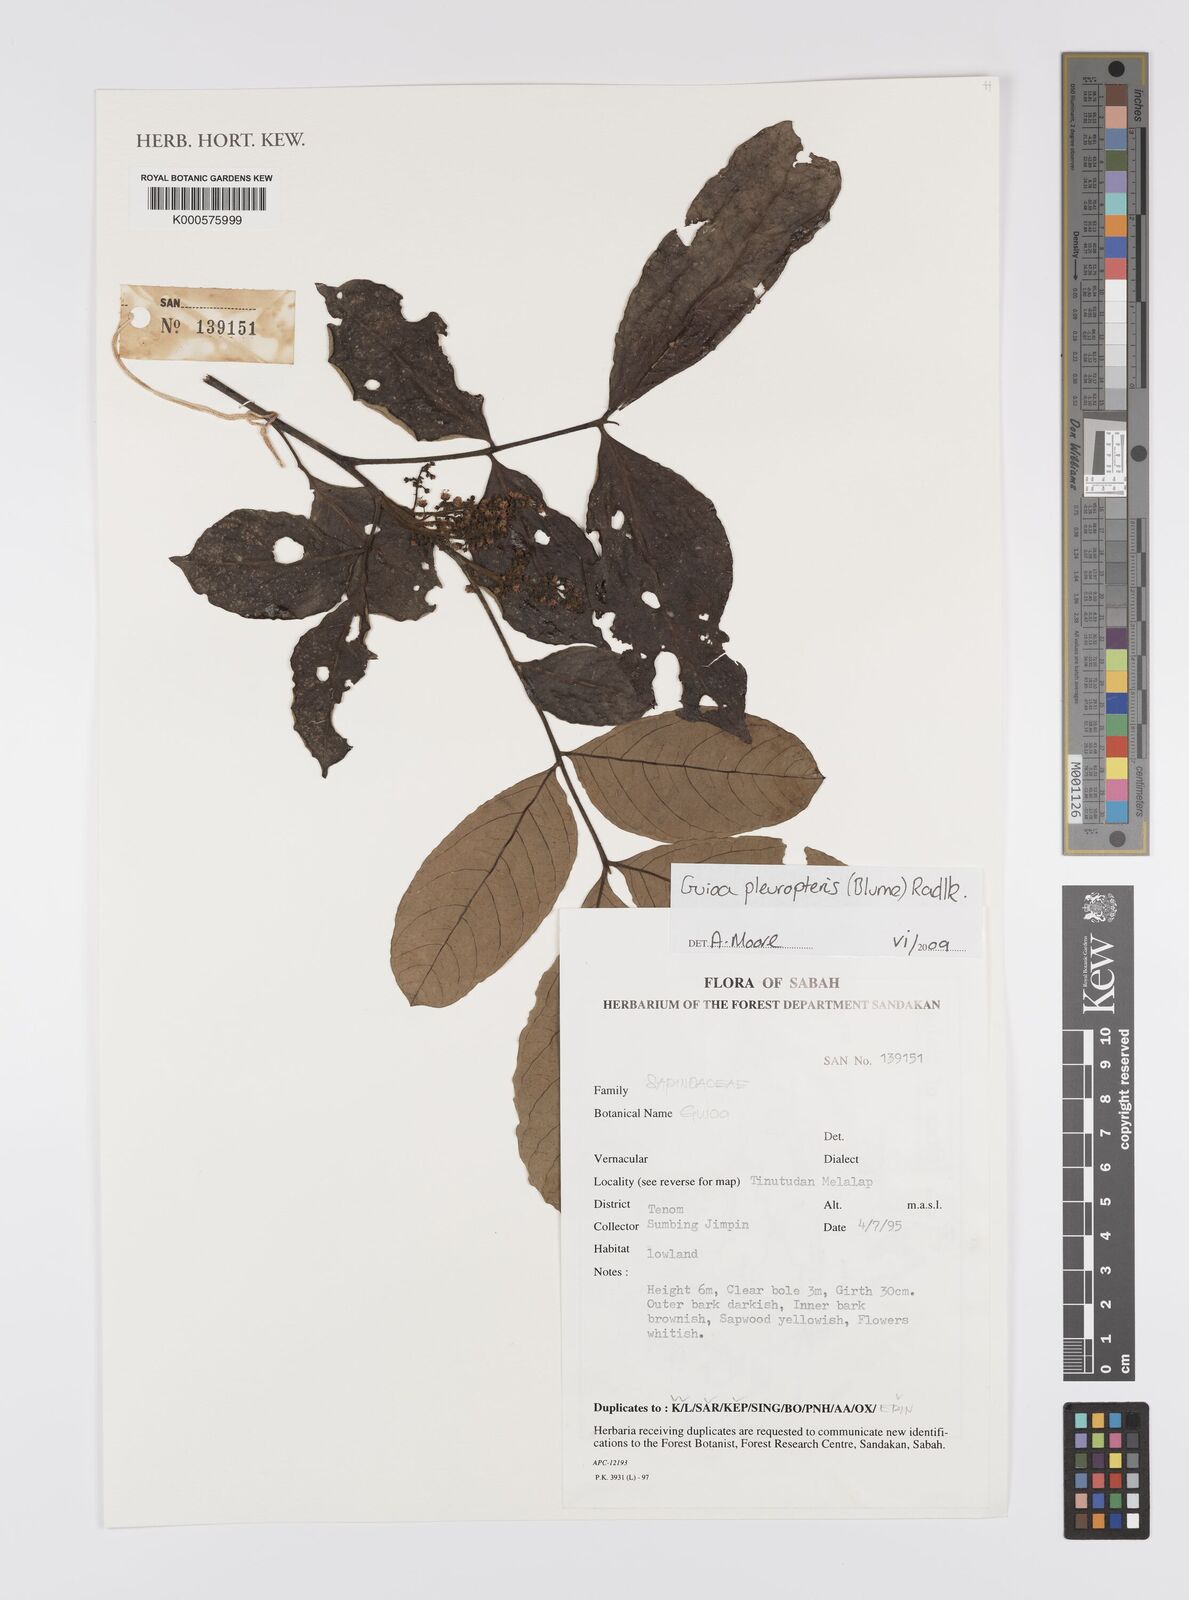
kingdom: Plantae
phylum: Tracheophyta
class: Magnoliopsida
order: Sapindales
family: Sapindaceae
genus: Guioa
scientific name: Guioa pleuropteris
